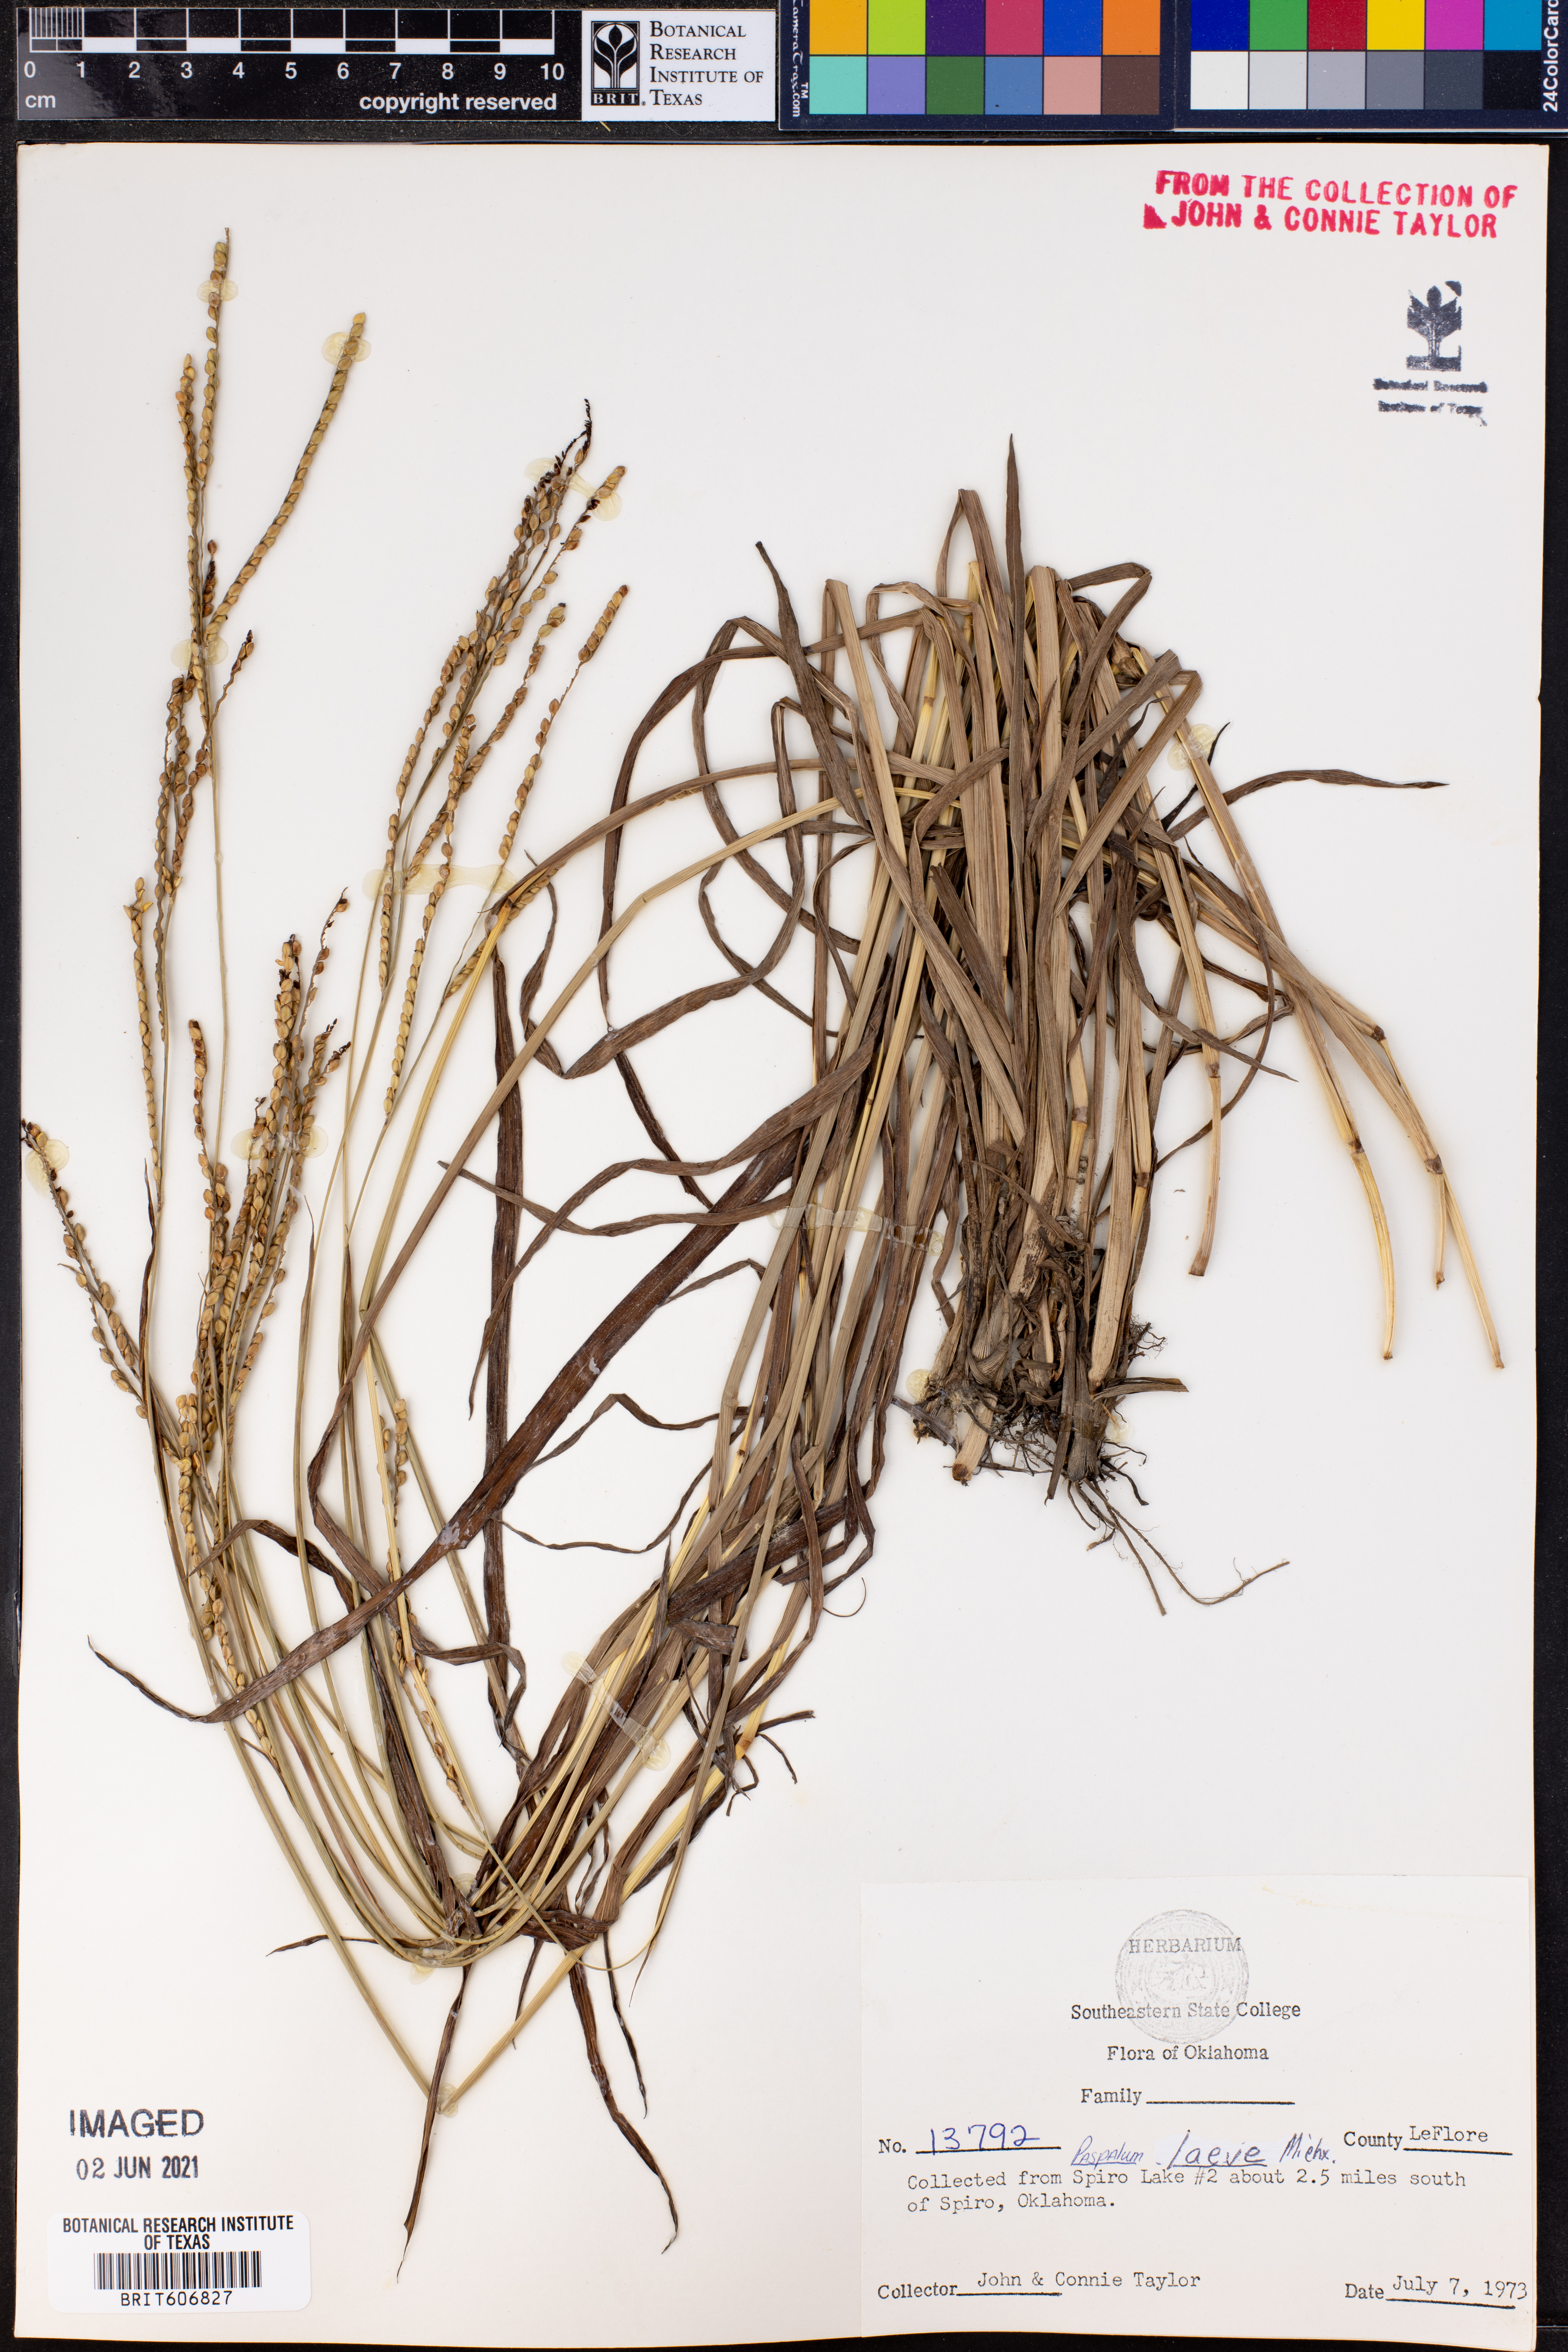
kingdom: Plantae
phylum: Tracheophyta
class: Liliopsida
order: Poales
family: Poaceae
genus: Paspalum
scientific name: Paspalum laeve
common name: Field paspalum
